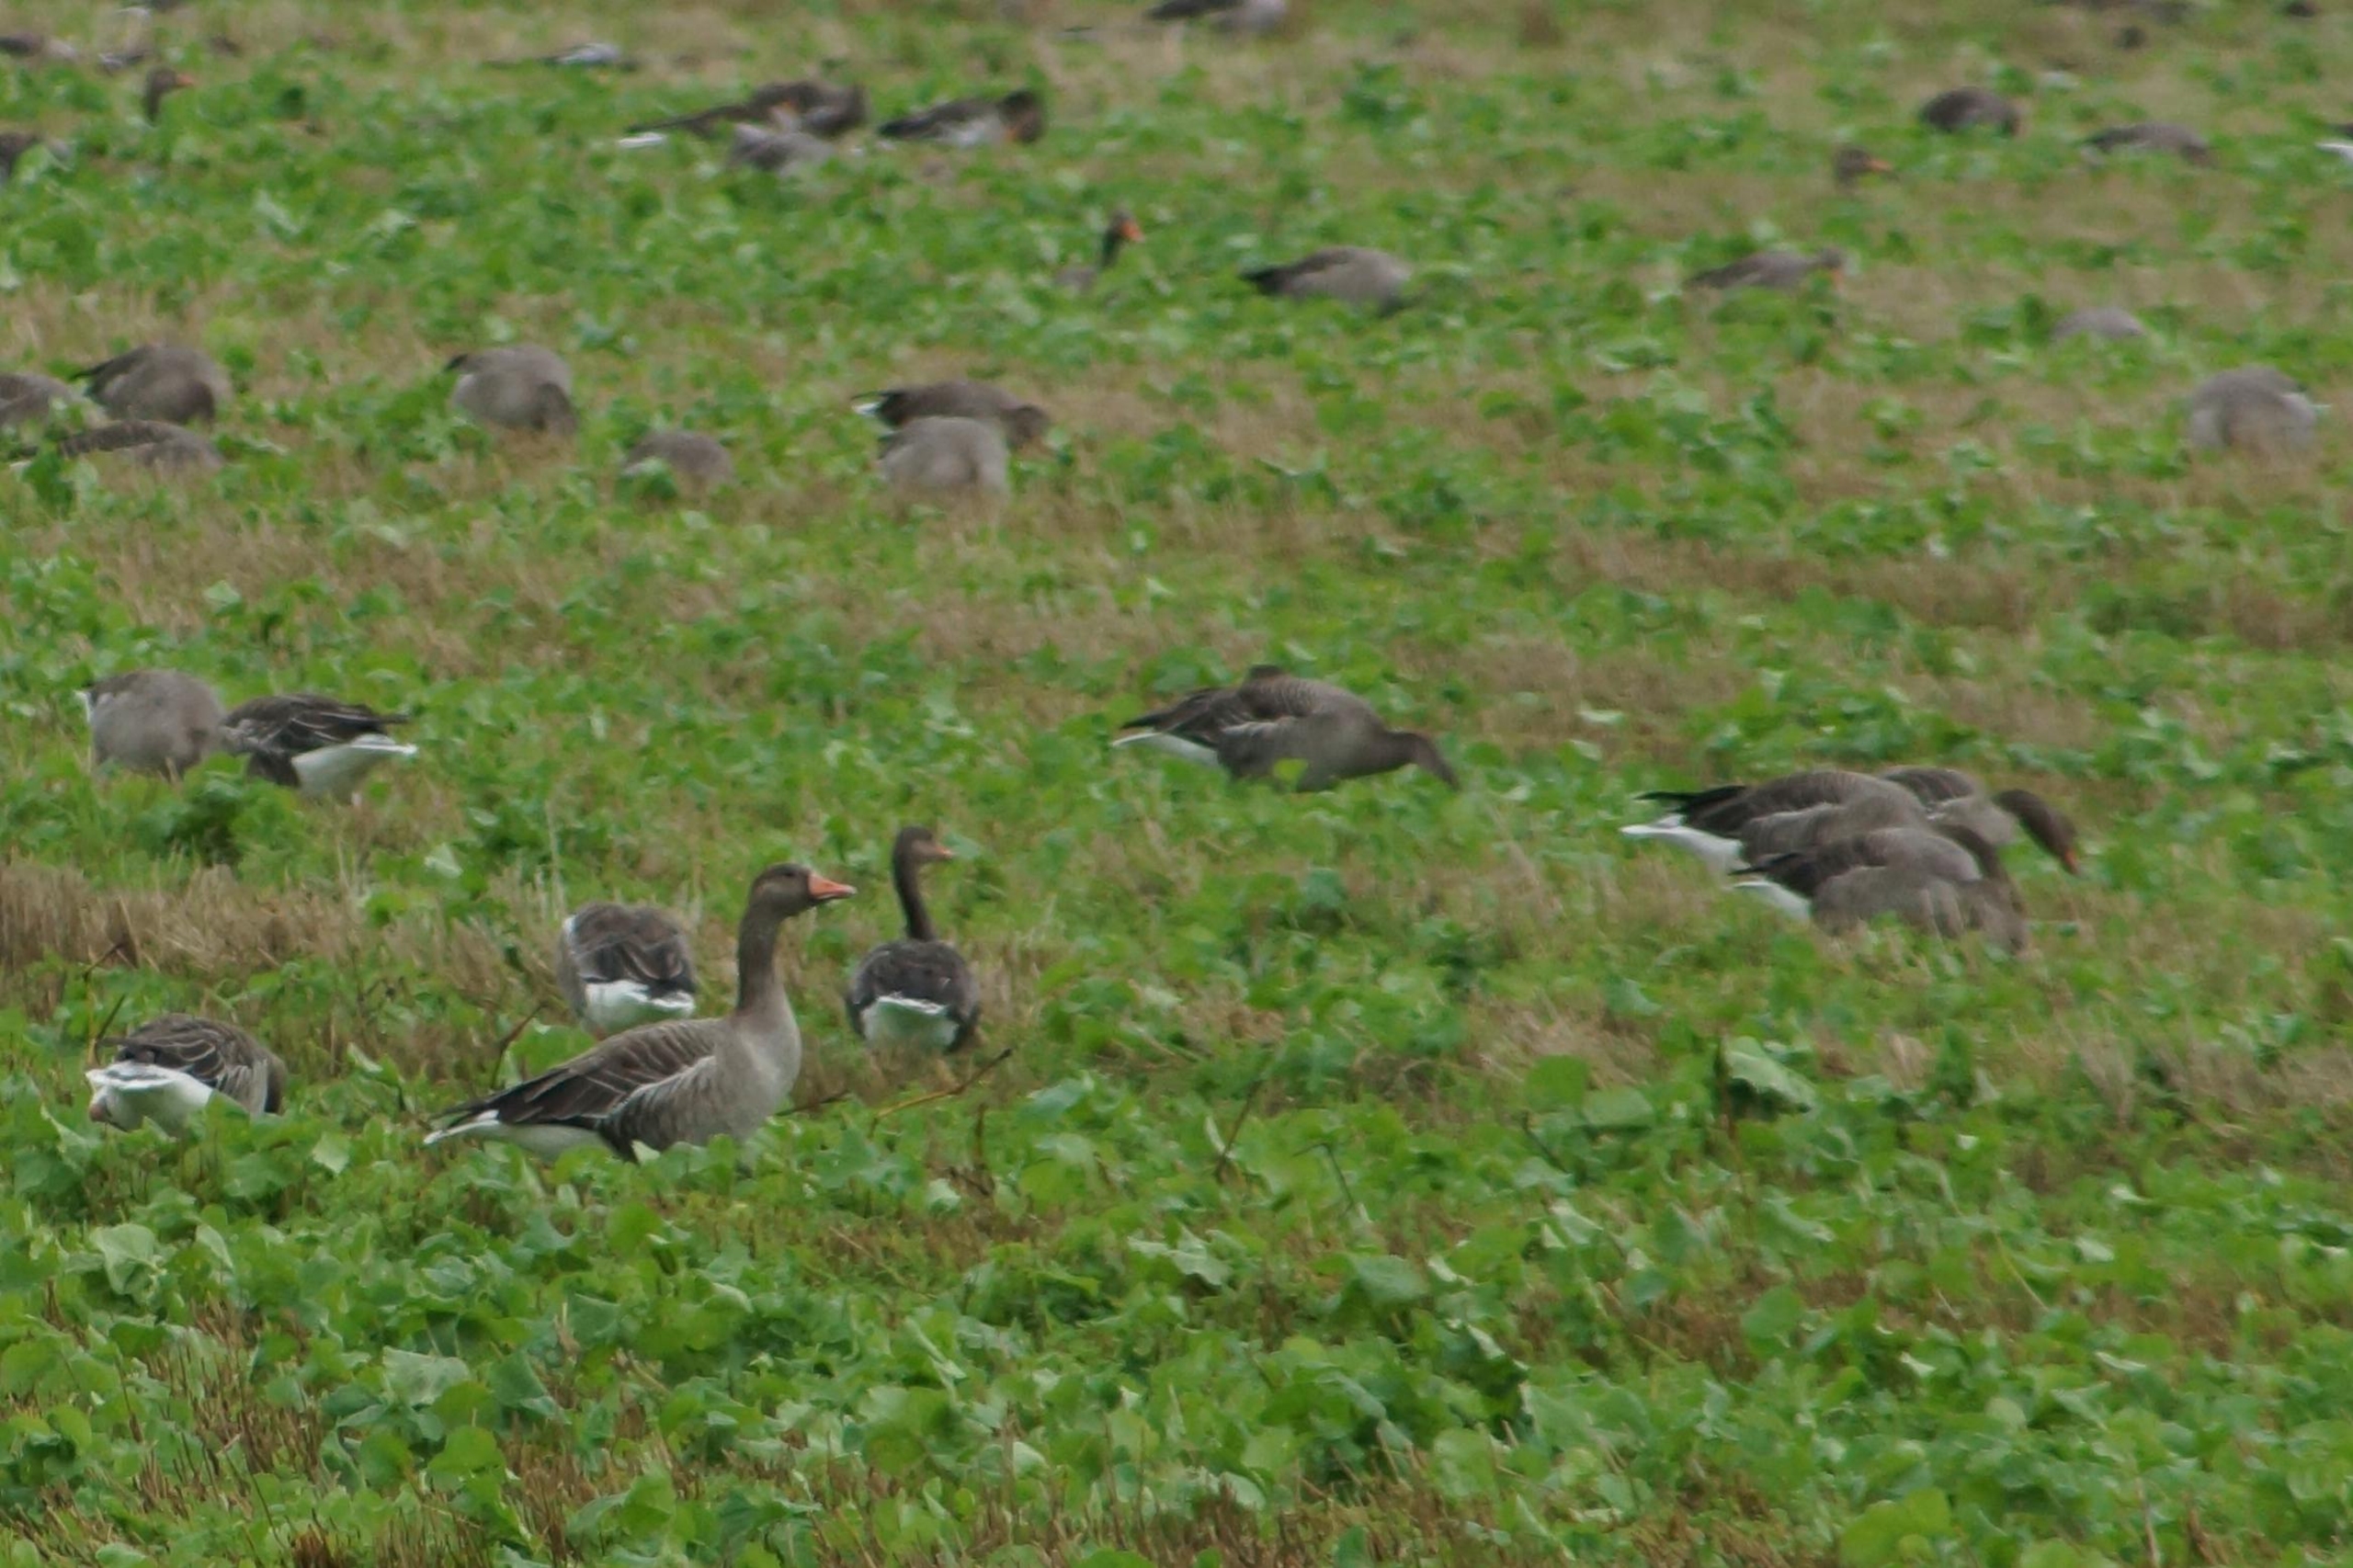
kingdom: Animalia
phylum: Chordata
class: Aves
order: Anseriformes
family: Anatidae
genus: Anser
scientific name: Anser anser
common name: Grågås
